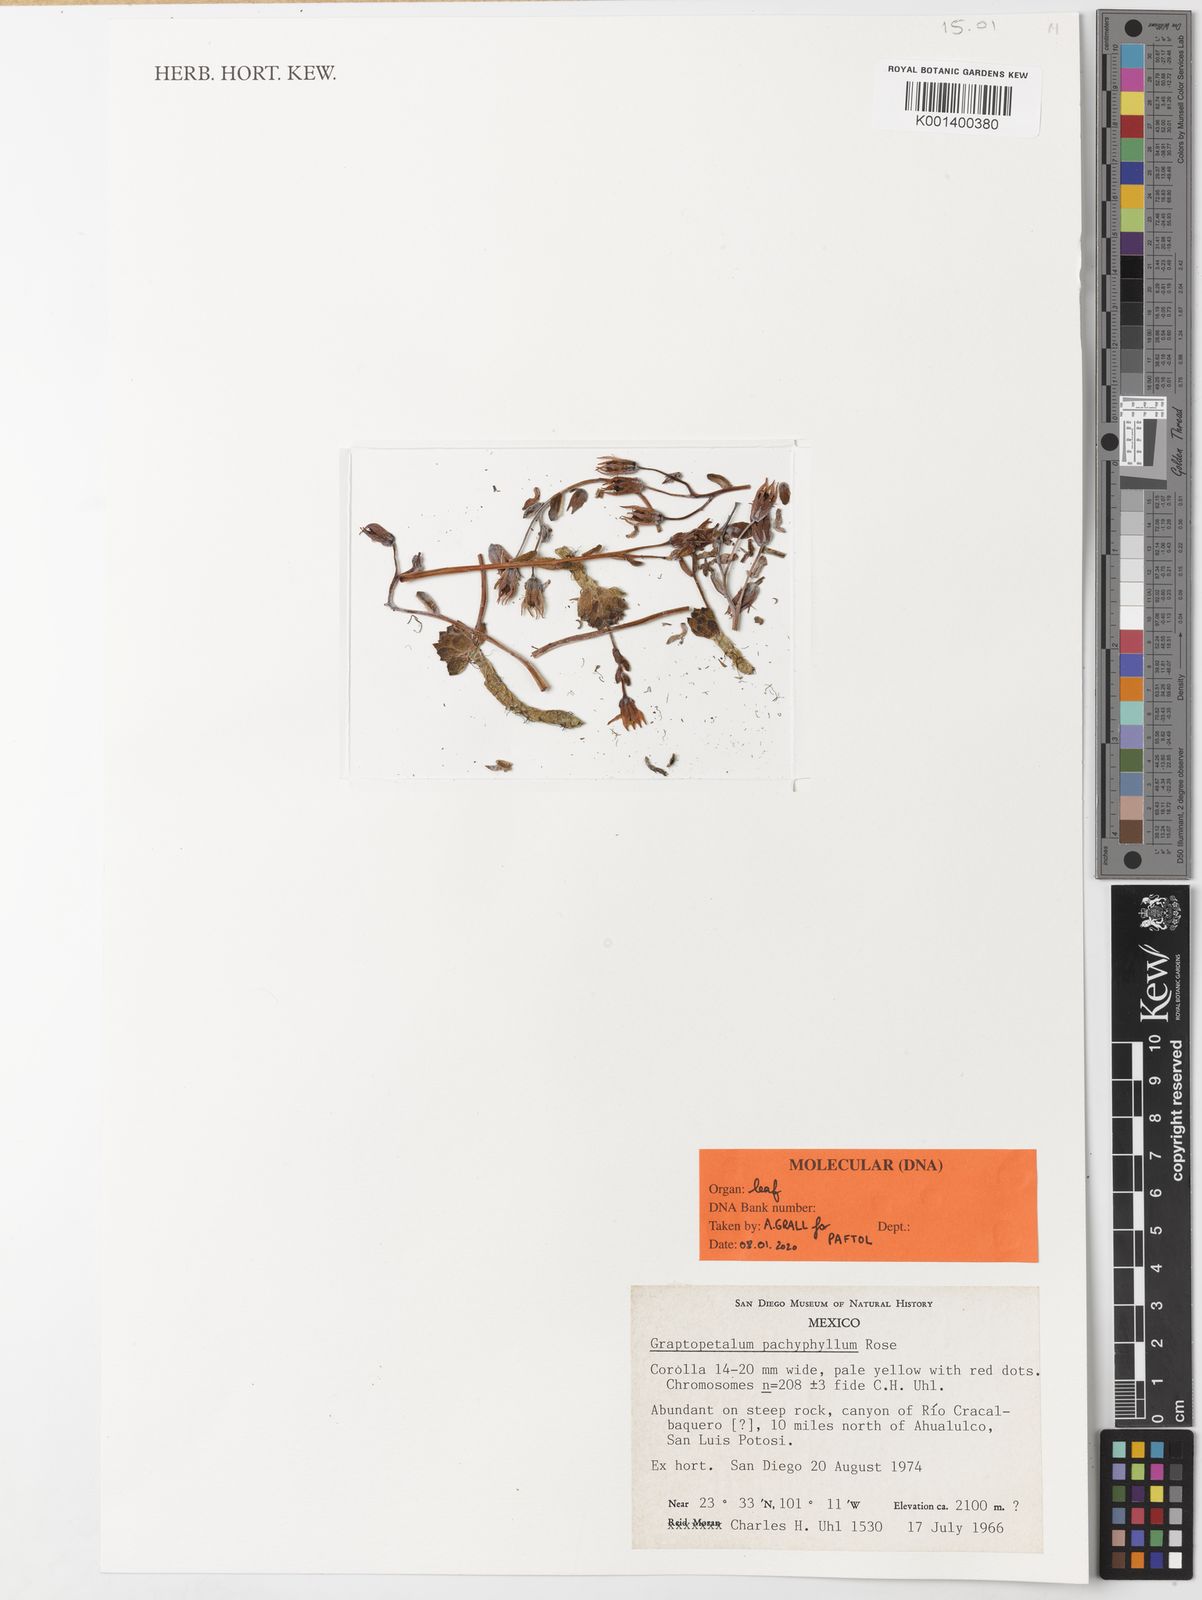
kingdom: Plantae
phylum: Tracheophyta
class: Magnoliopsida
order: Saxifragales
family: Crassulaceae
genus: Graptopetalum
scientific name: Graptopetalum pachyphyllum
